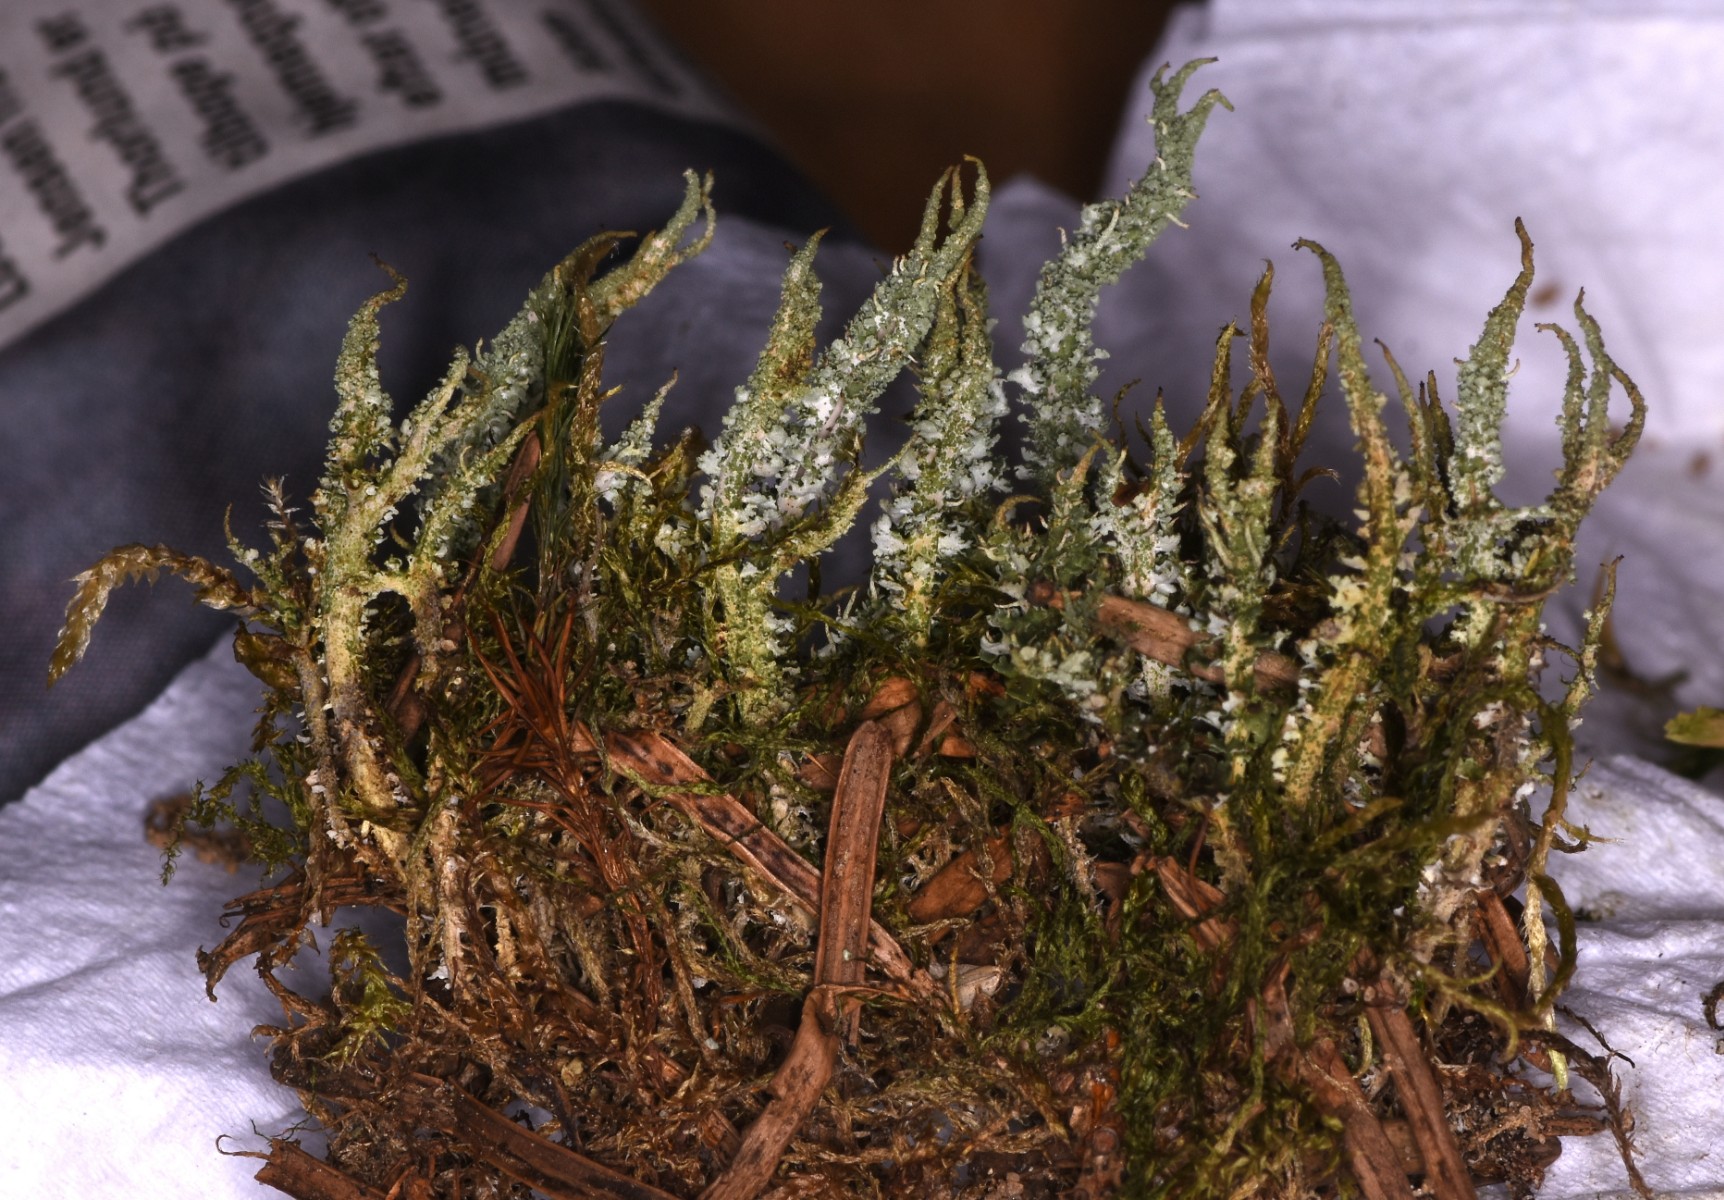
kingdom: Fungi
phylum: Ascomycota
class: Lecanoromycetes
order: Lecanorales
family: Cladoniaceae
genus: Cladonia
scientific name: Cladonia scabriuscula
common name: ru bægerlav
